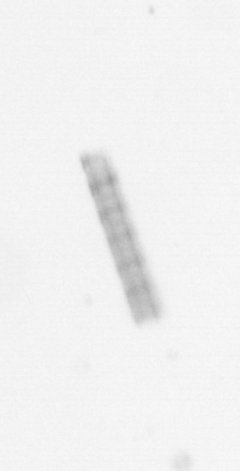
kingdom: Chromista
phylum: Ochrophyta
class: Bacillariophyceae
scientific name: Bacillariophyceae
